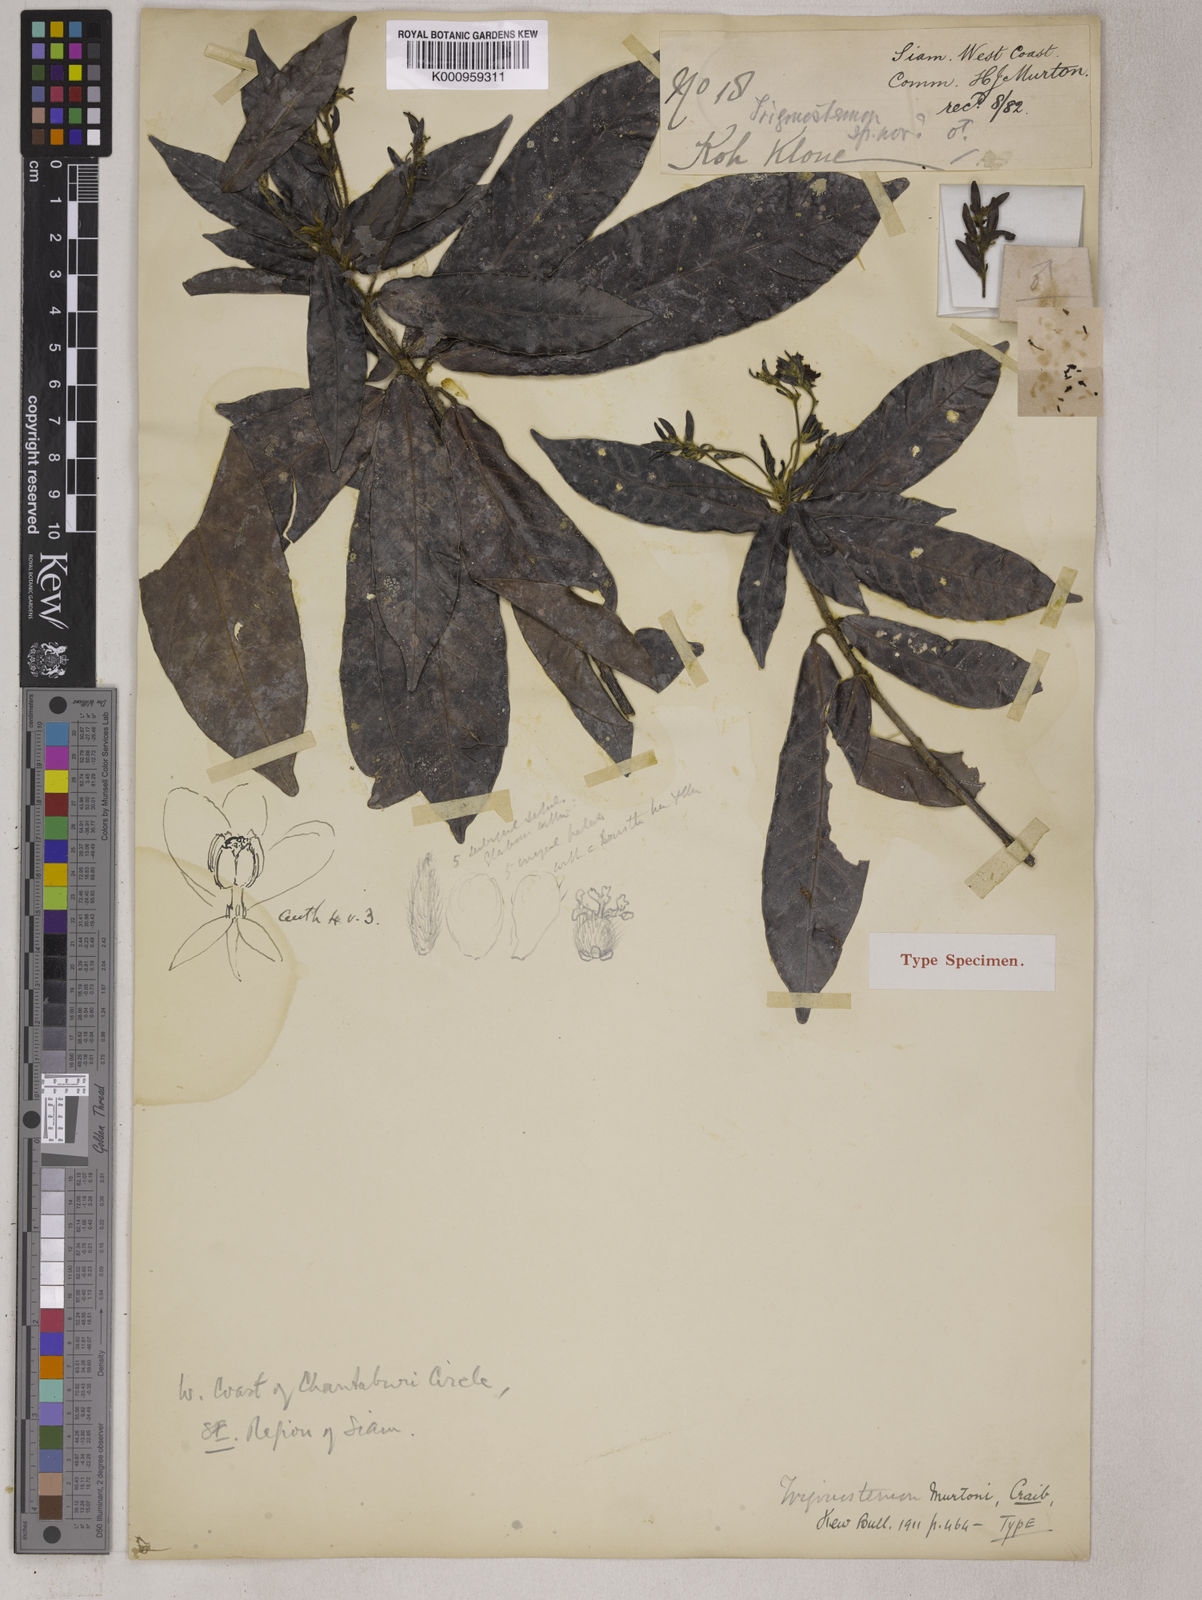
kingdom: Plantae
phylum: Tracheophyta
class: Magnoliopsida
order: Malpighiales
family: Euphorbiaceae
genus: Trigonostemon
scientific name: Trigonostemon murtonii
